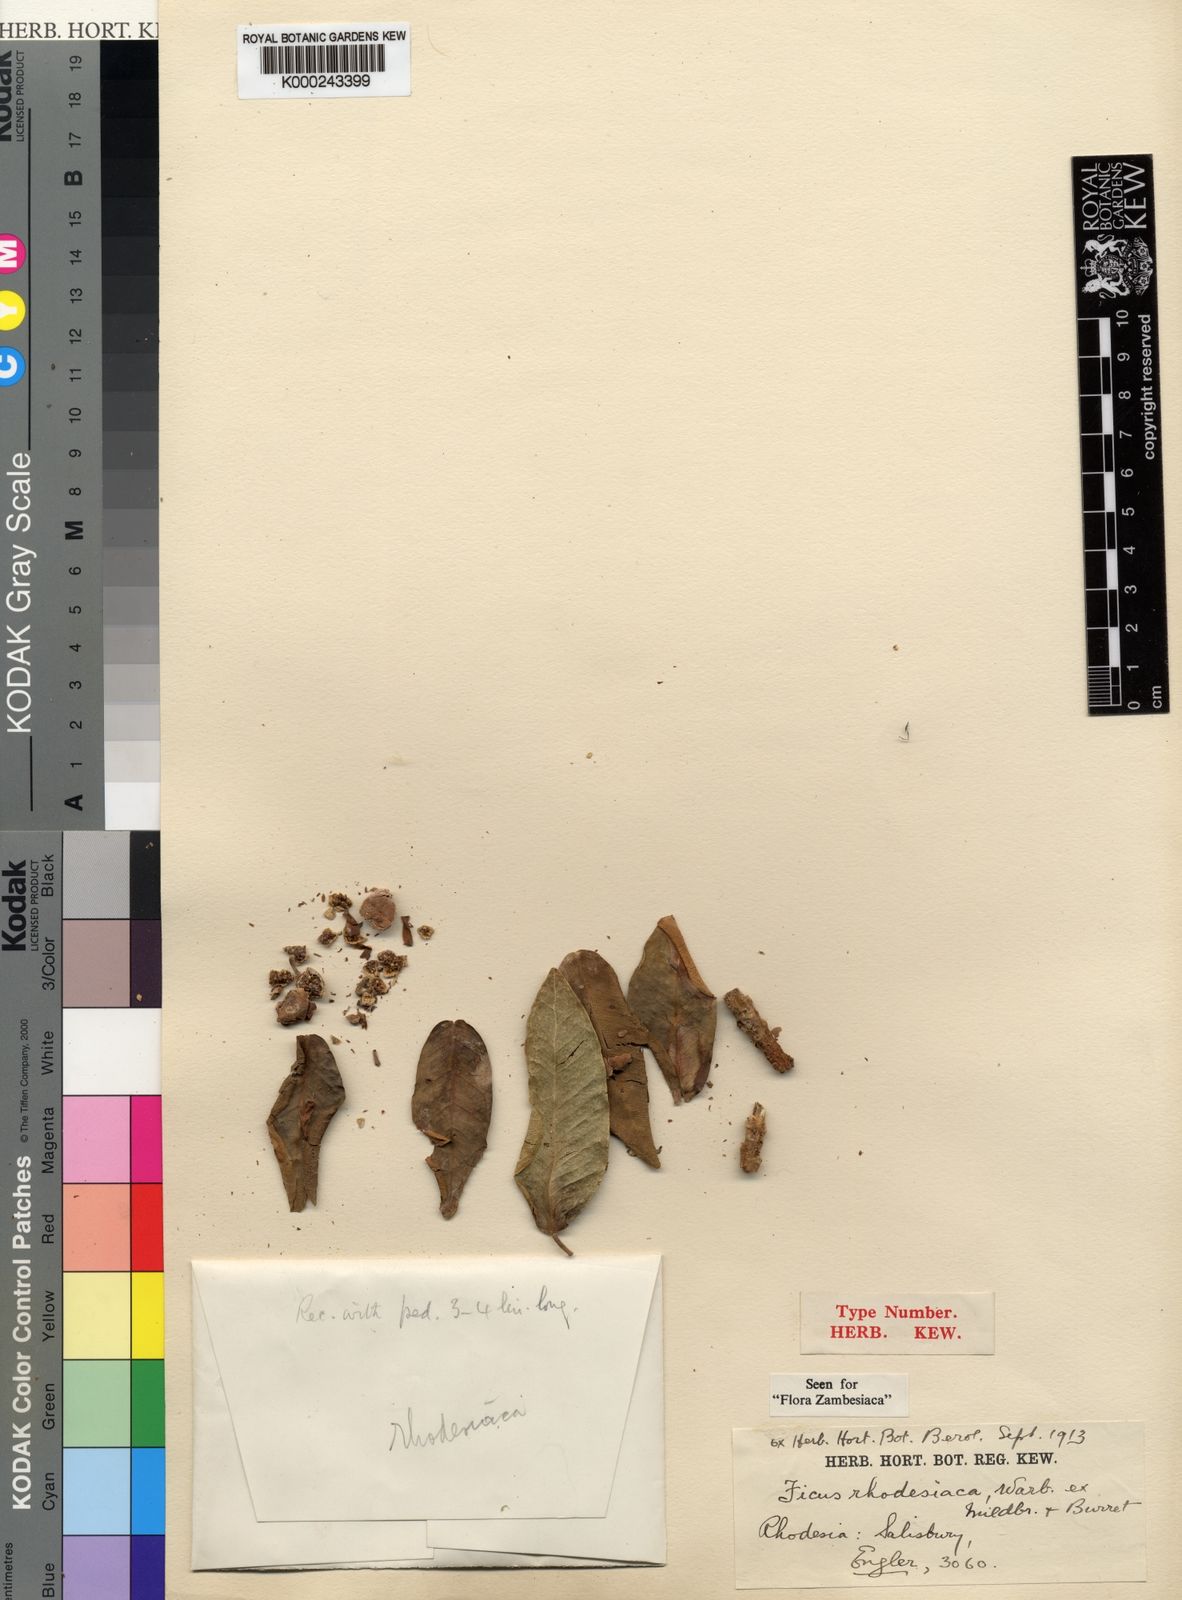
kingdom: Plantae
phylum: Tracheophyta
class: Magnoliopsida
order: Rosales
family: Moraceae
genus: Ficus
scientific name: Ficus thonningii
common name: Fig
